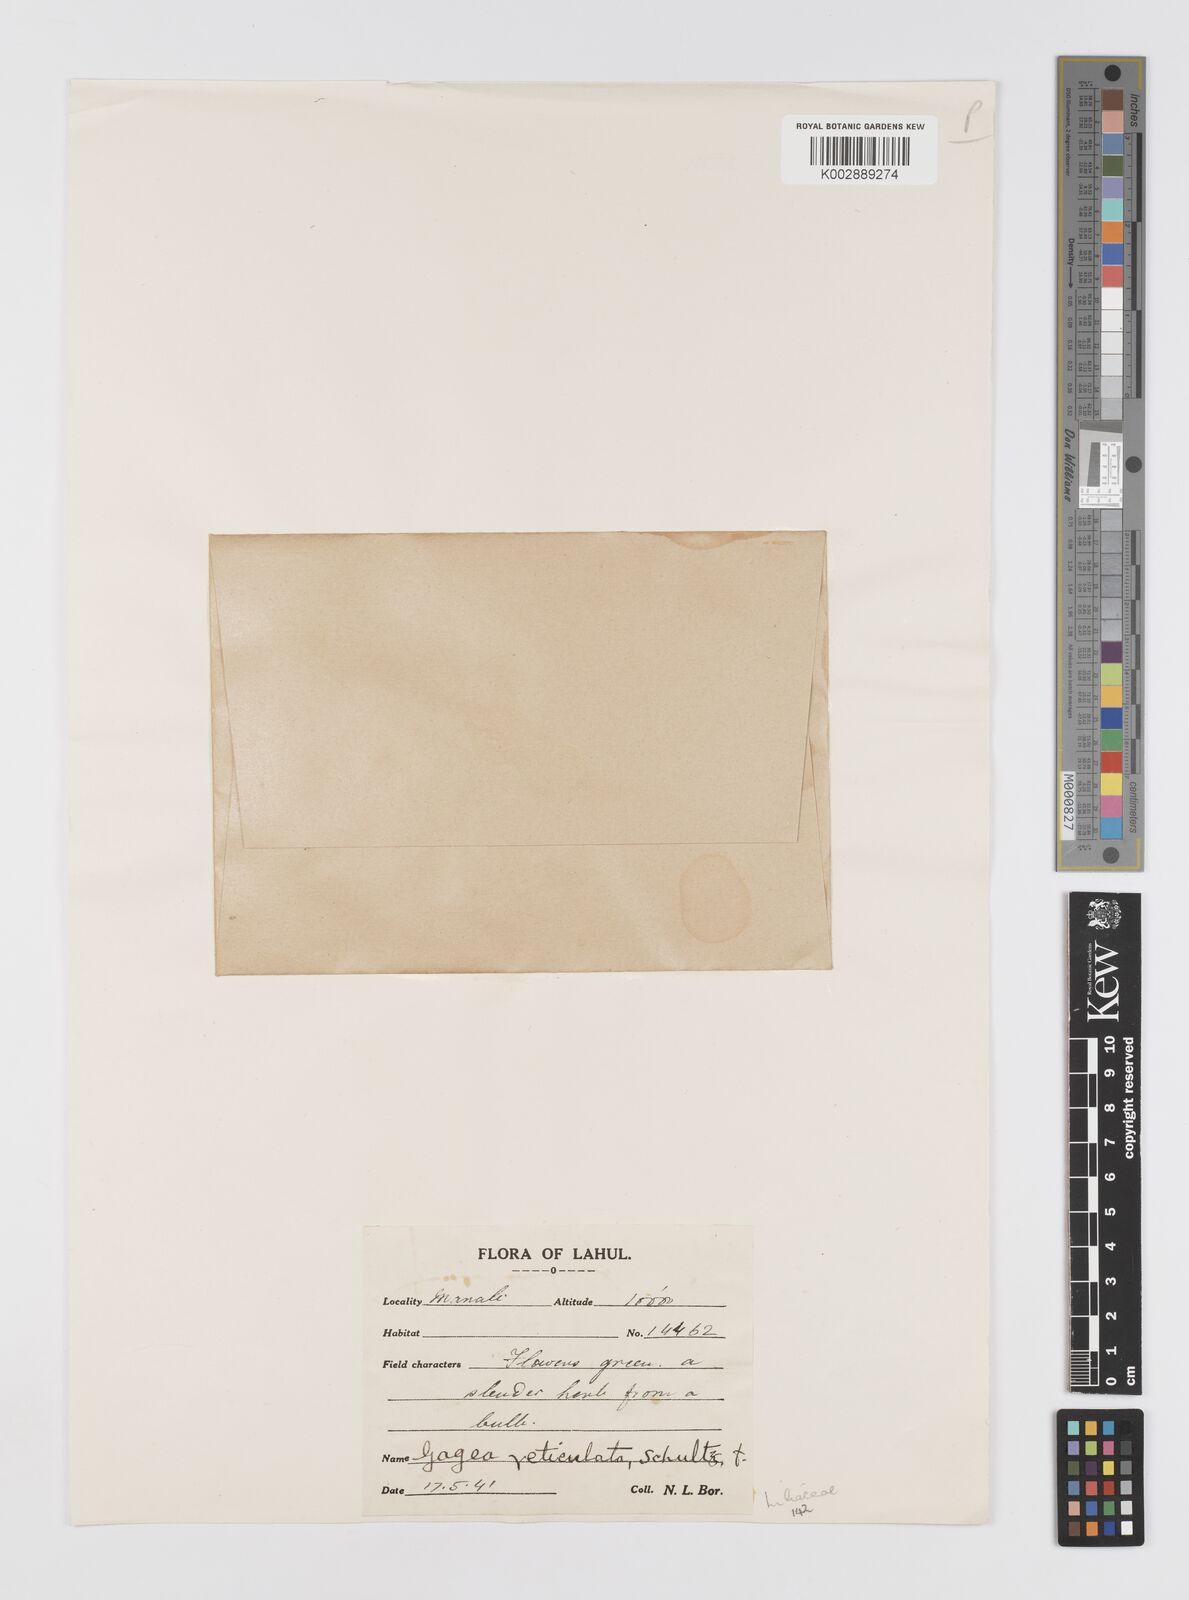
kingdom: Plantae
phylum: Tracheophyta
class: Liliopsida
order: Liliales
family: Liliaceae
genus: Gagea
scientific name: Gagea reticulata
